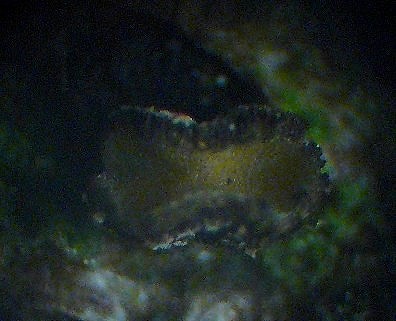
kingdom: Fungi
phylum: Ascomycota
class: Leotiomycetes
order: Helotiales
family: Cenangiaceae
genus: Cenangium
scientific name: Cenangium ferruginosum
